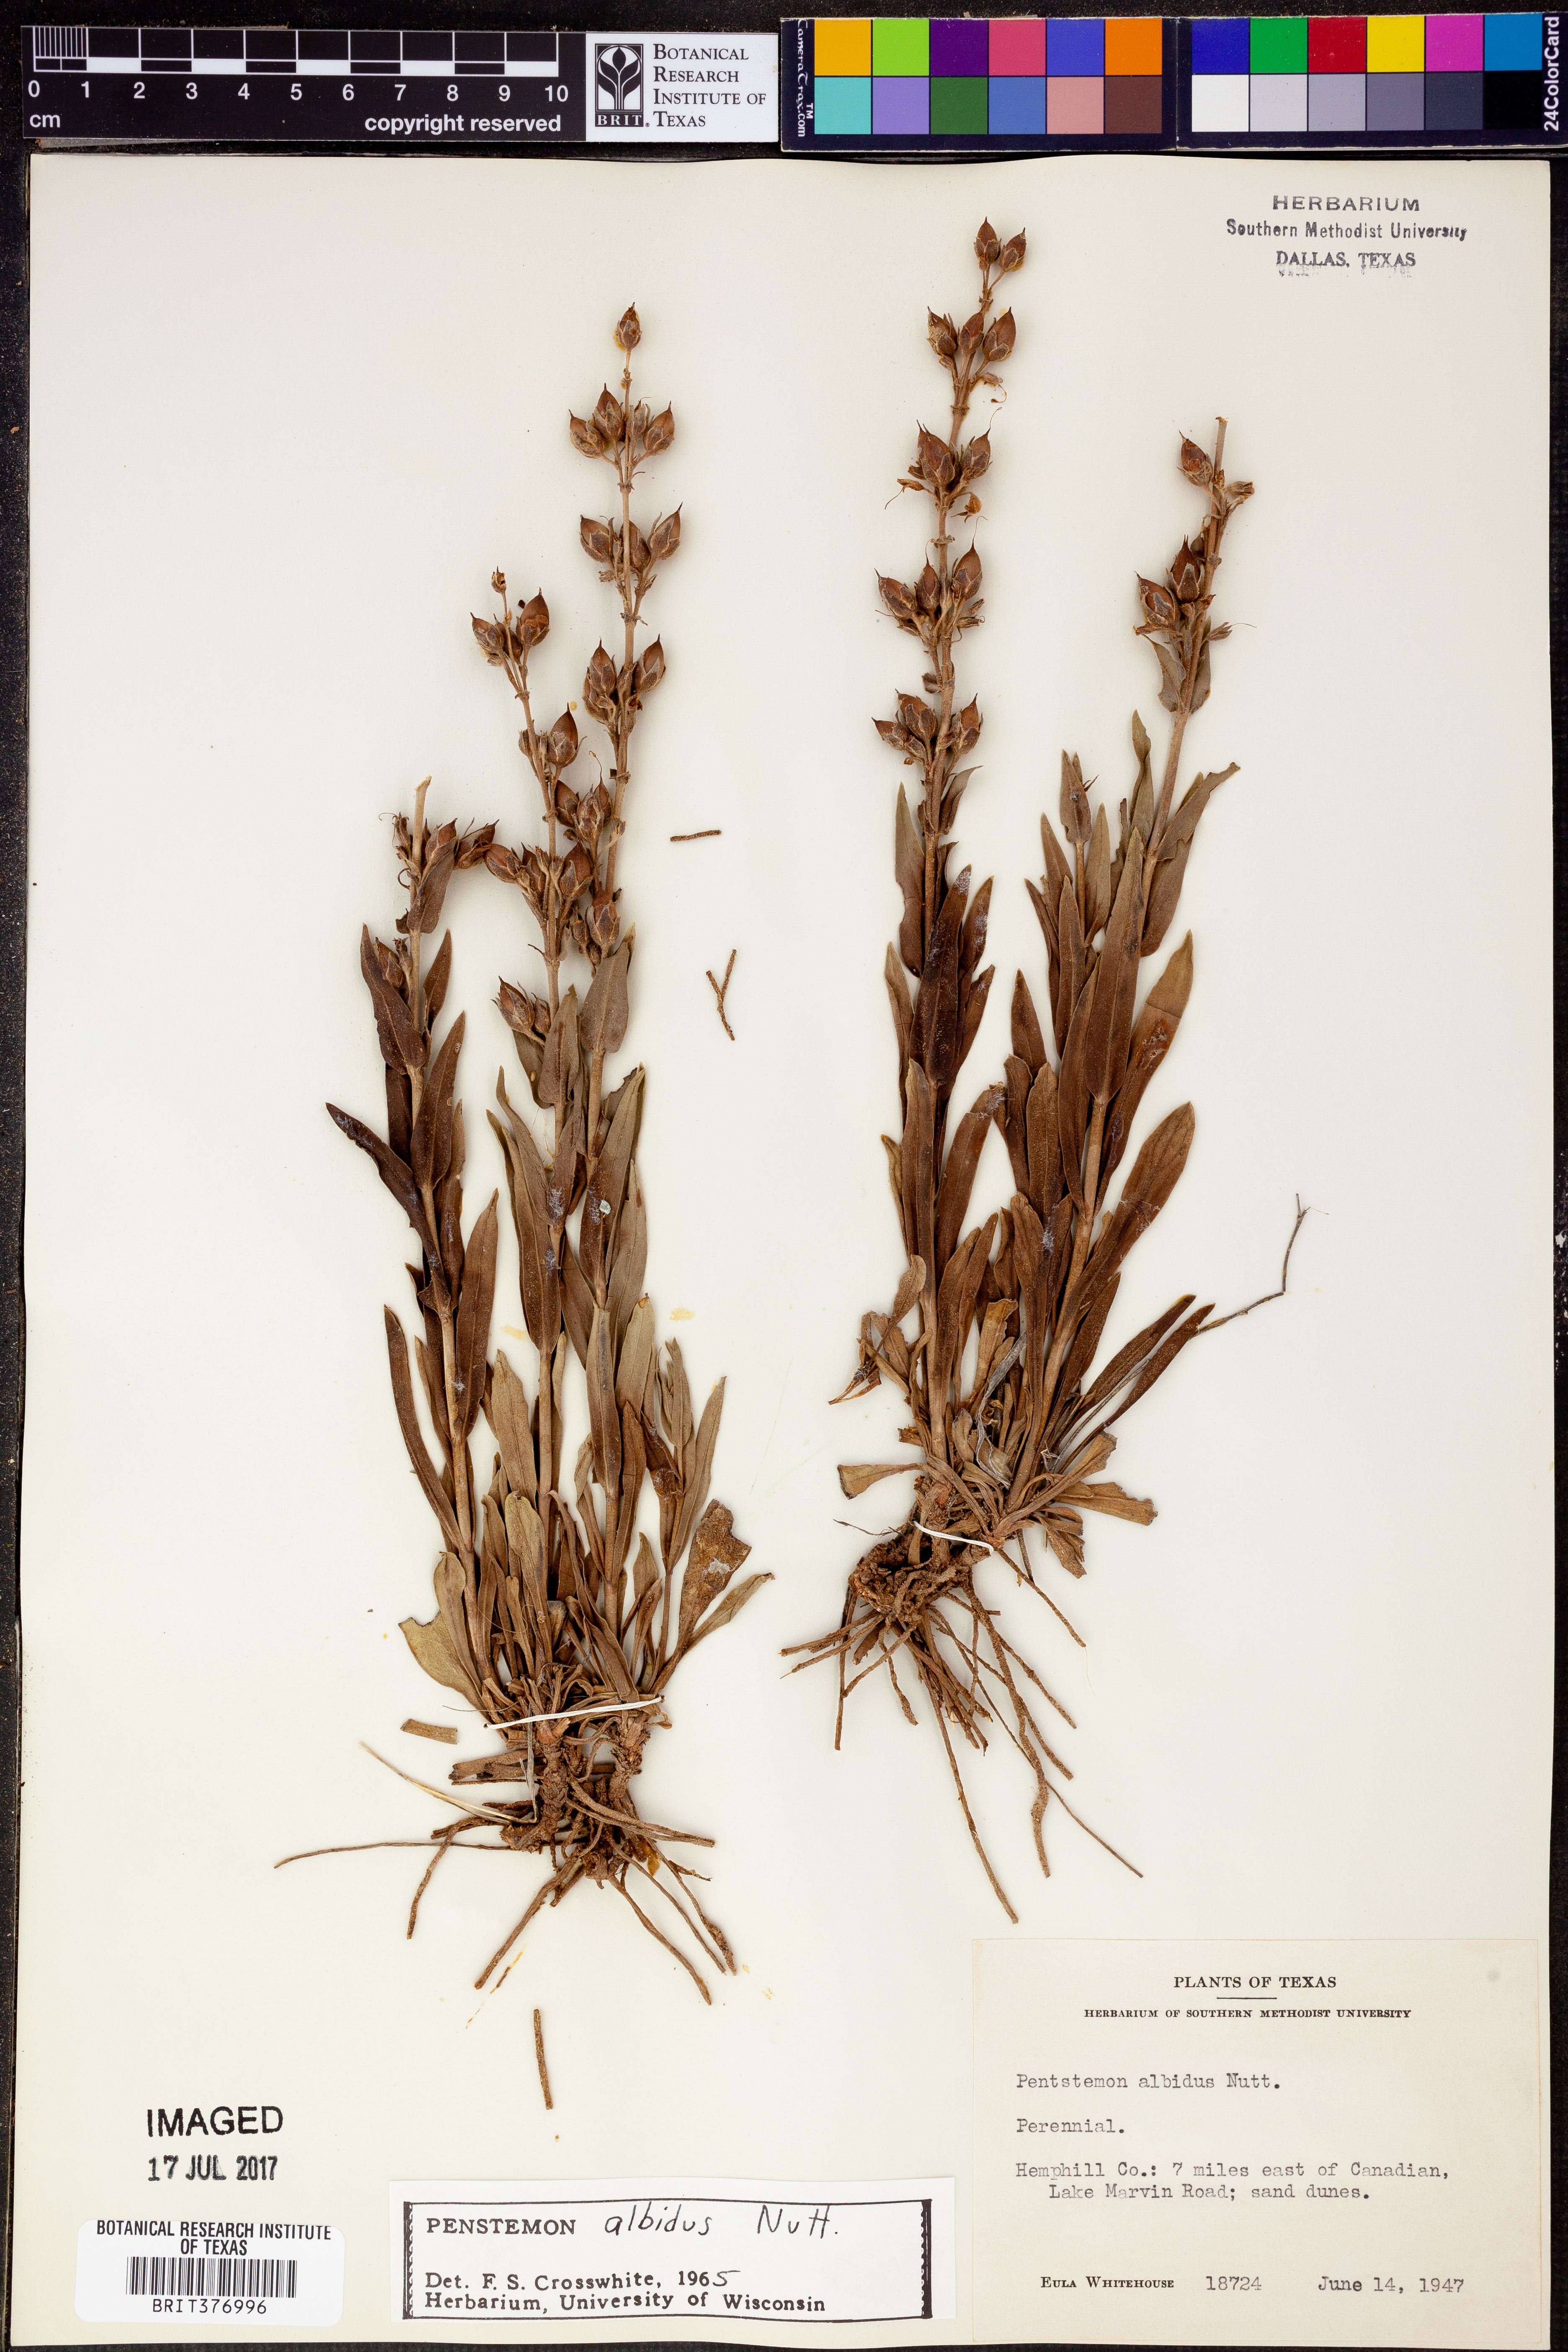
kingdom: Plantae
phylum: Tracheophyta
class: Magnoliopsida
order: Lamiales
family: Plantaginaceae
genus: Penstemon
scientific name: Penstemon albidus
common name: White beardtongue
